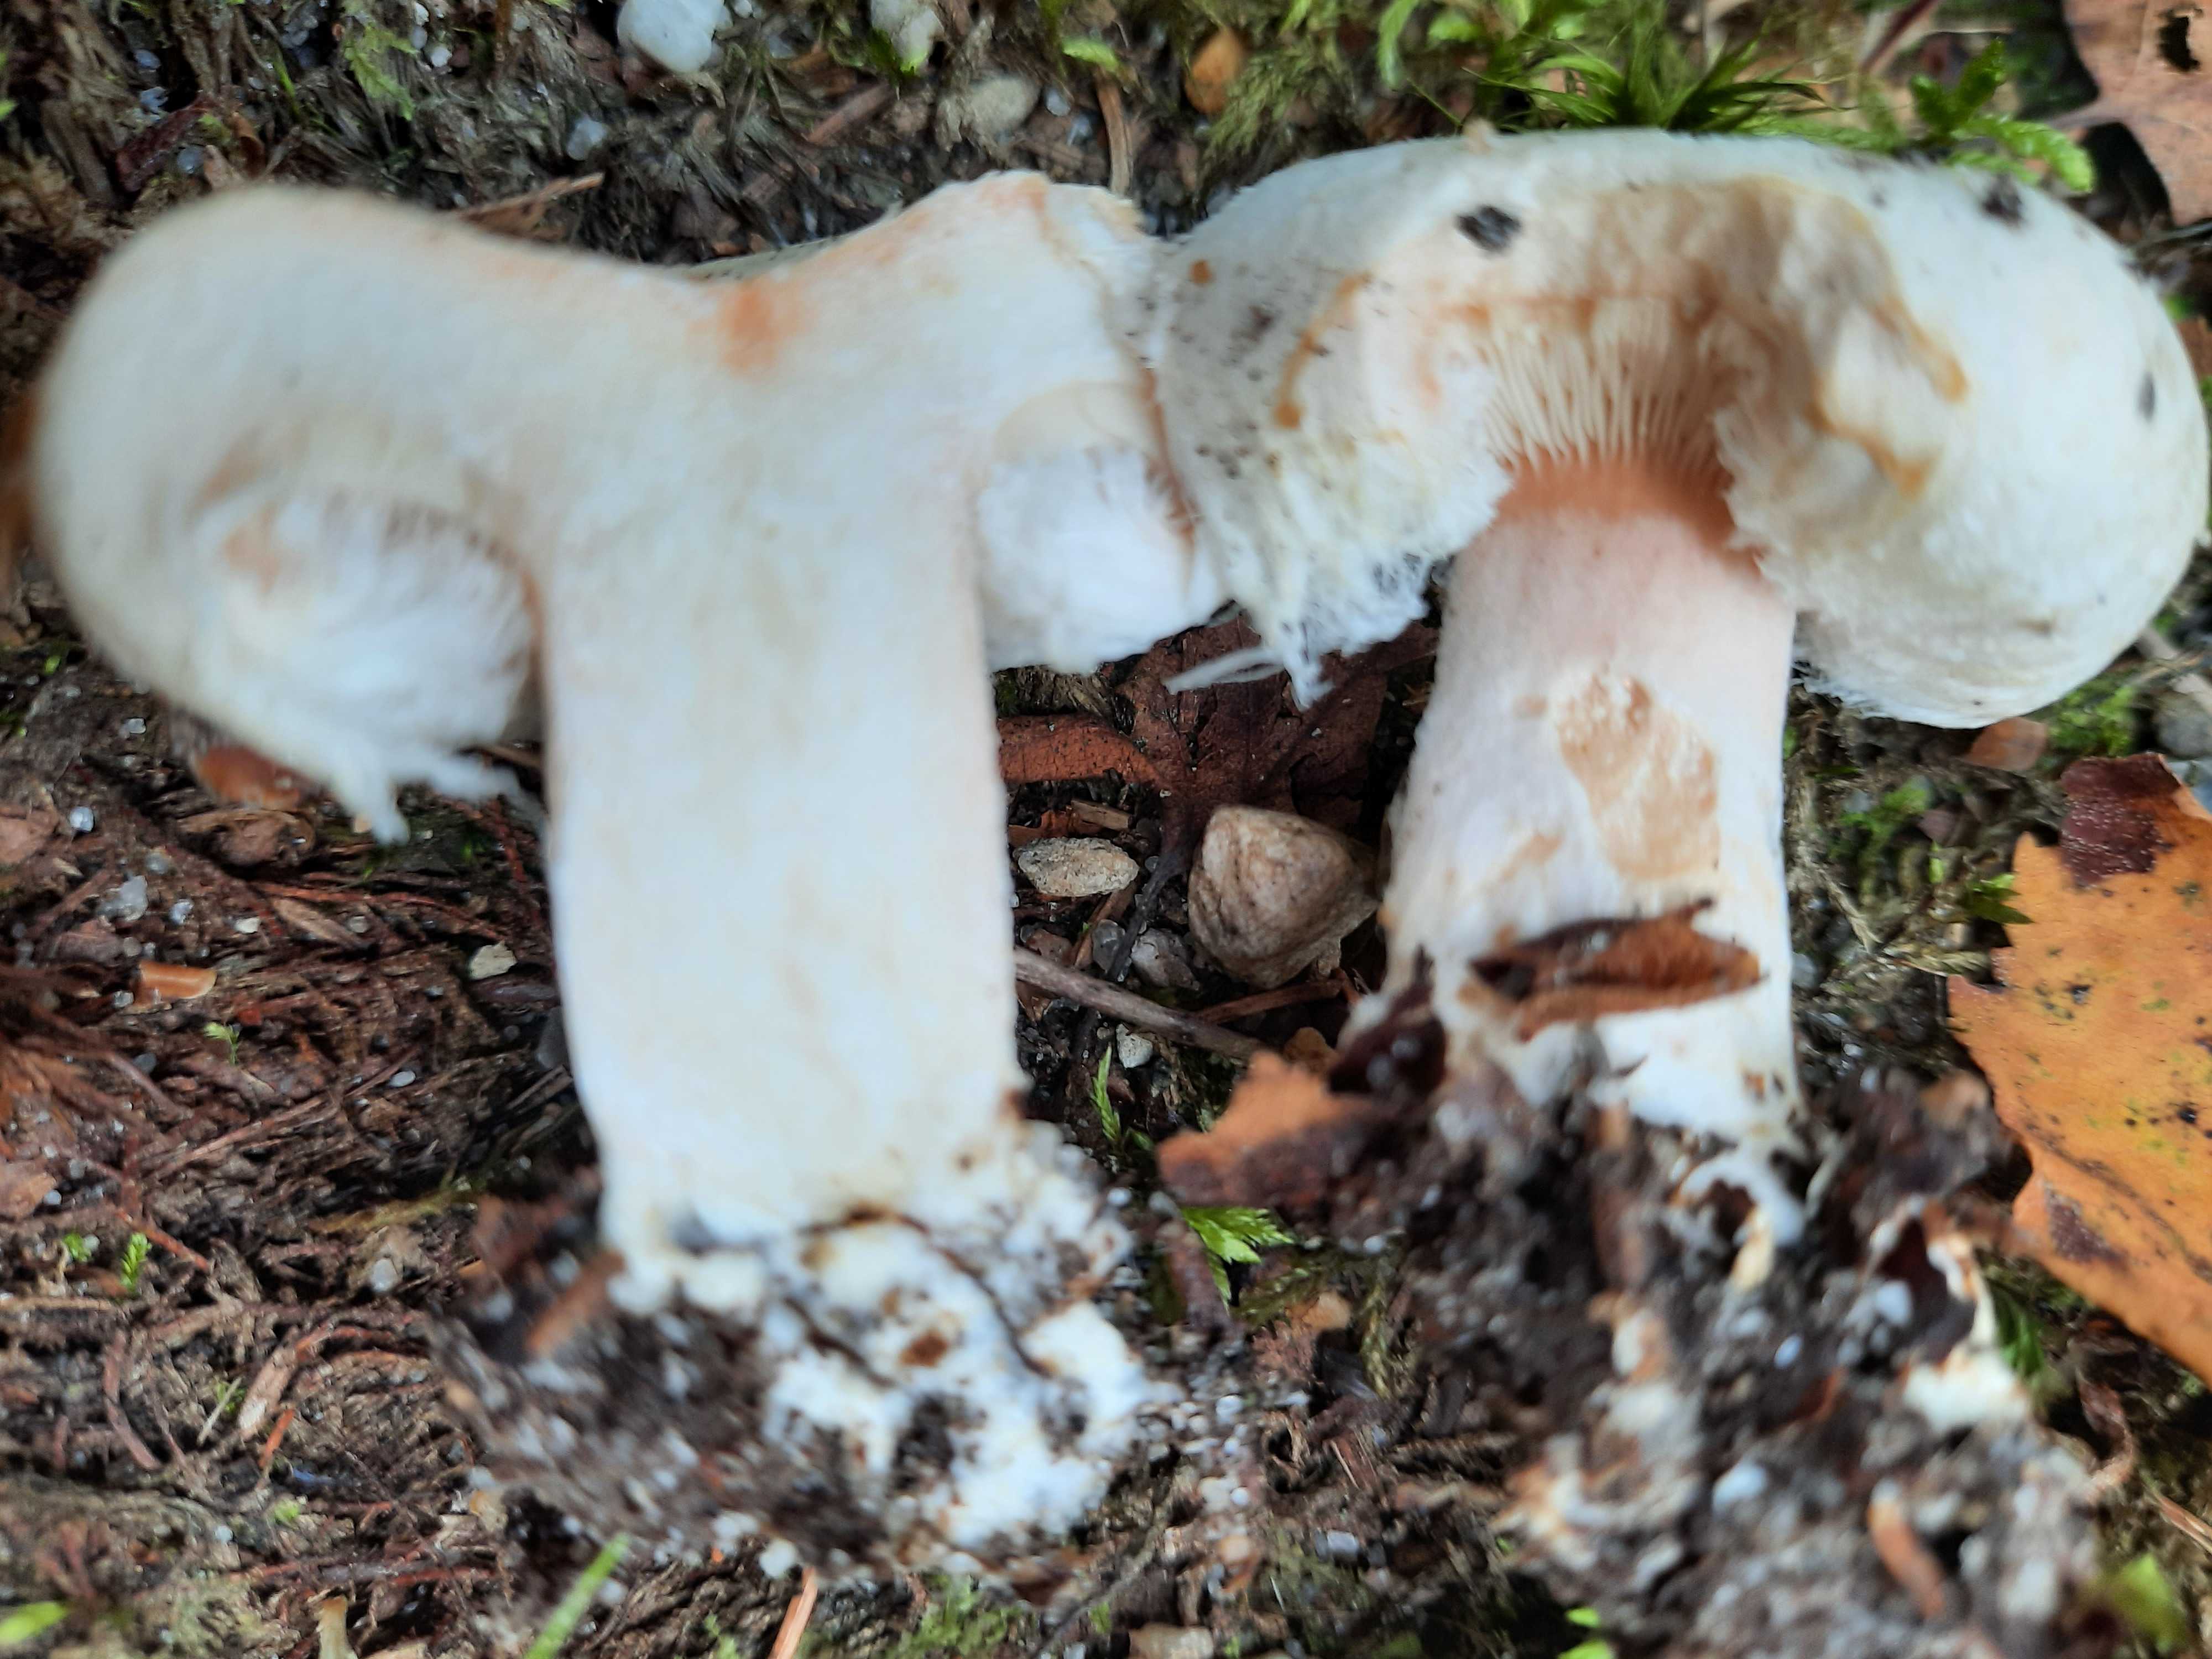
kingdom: Fungi
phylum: Basidiomycota
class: Agaricomycetes
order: Russulales
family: Russulaceae
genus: Lactarius
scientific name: Lactarius pubescens
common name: dunet mælkehat
